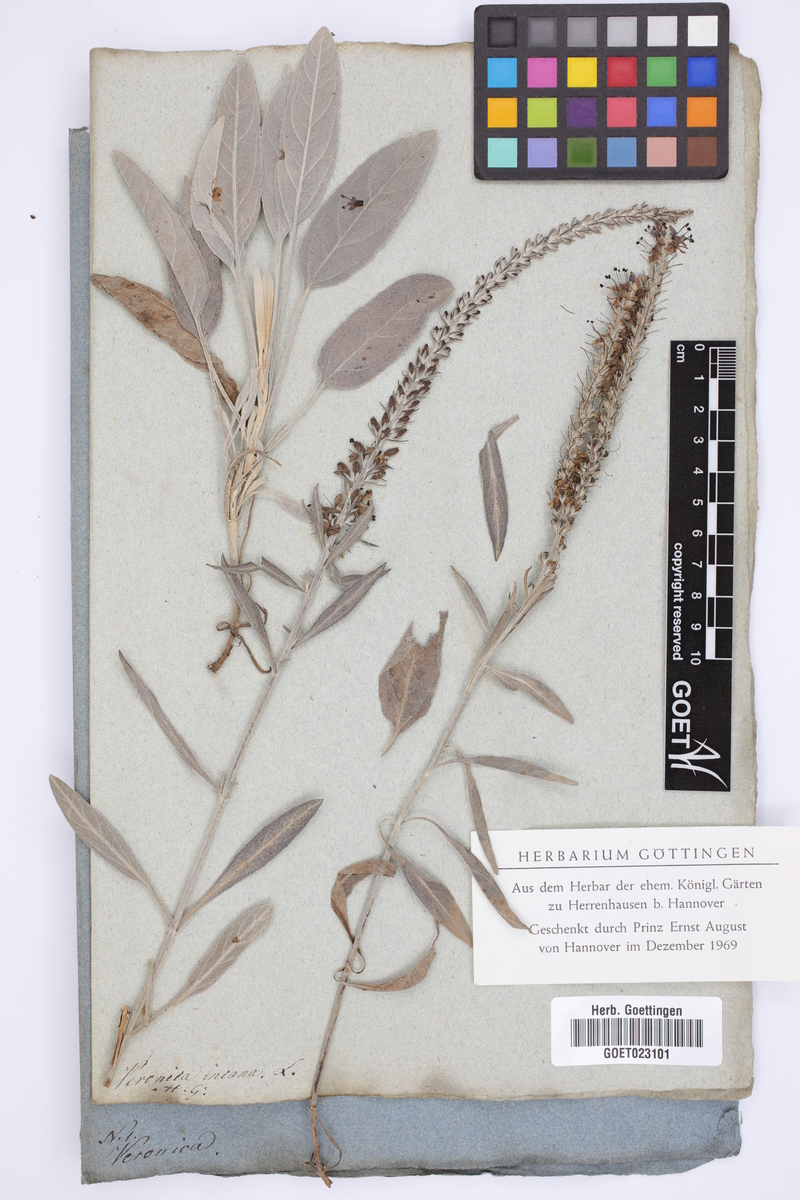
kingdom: Plantae
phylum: Tracheophyta
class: Magnoliopsida
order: Lamiales
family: Plantaginaceae
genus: Veronica
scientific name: Veronica incana
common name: Silver speedwell
